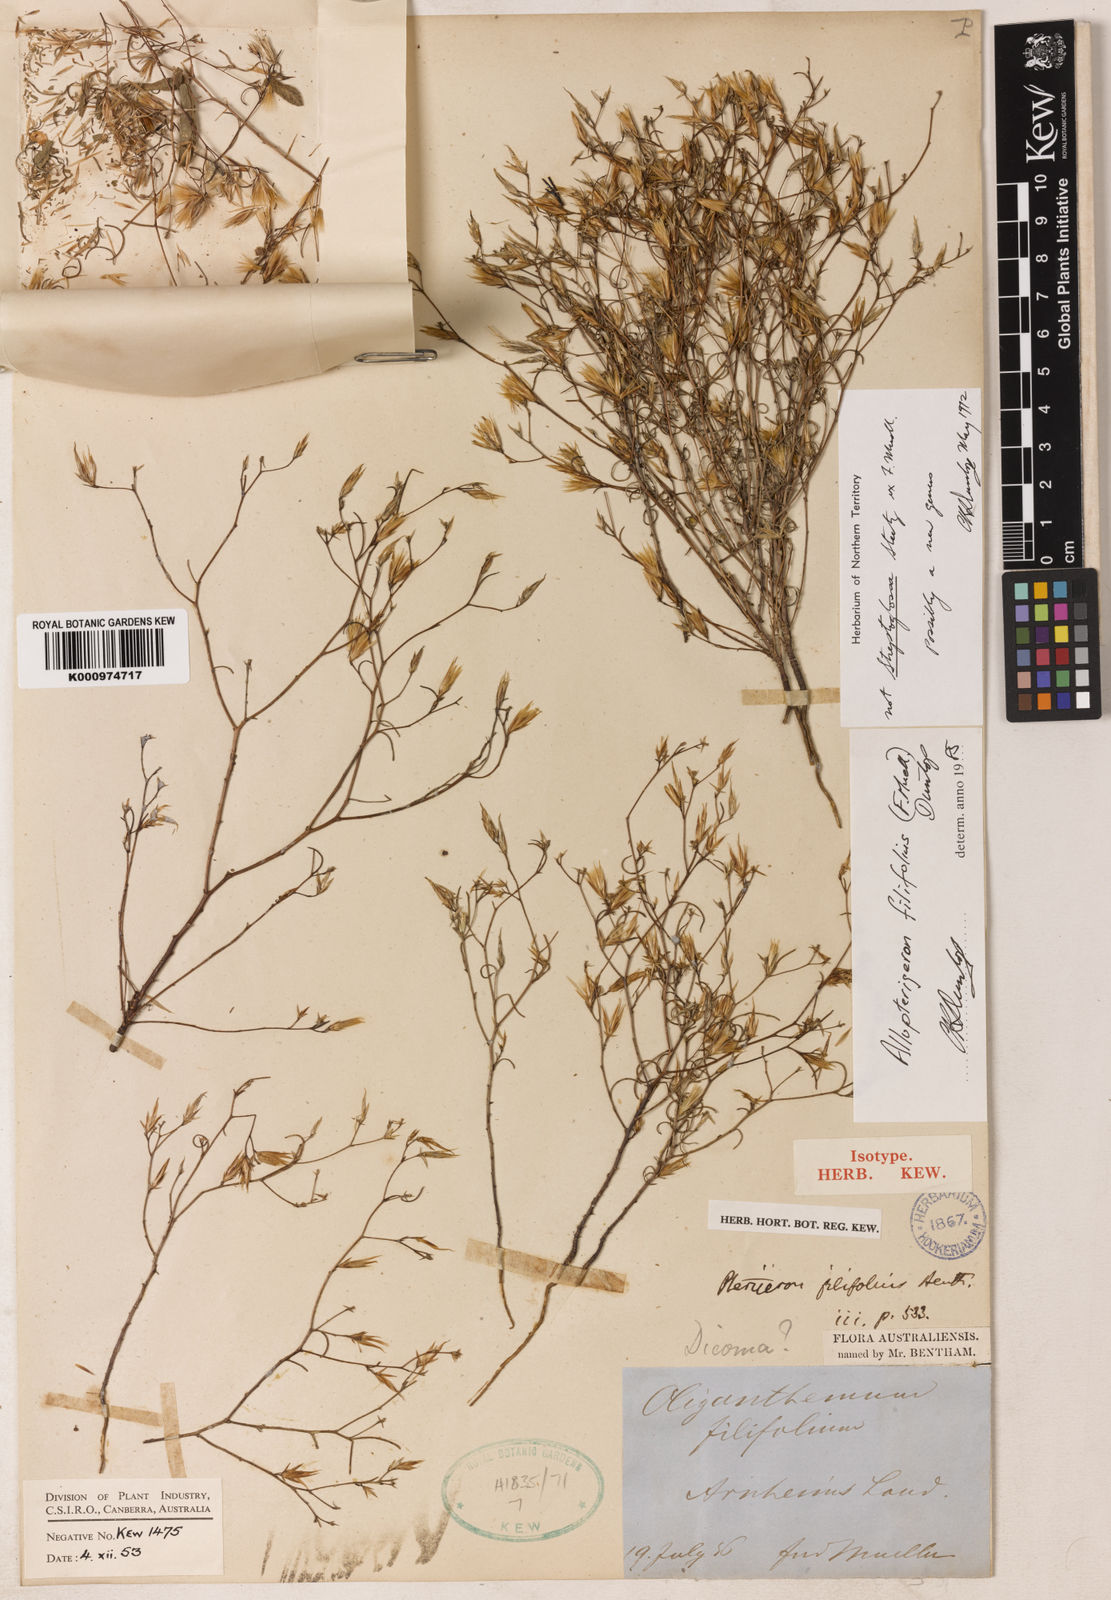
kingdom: Plantae
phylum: Tracheophyta
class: Magnoliopsida
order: Asterales
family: Asteraceae
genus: Allopterigeron
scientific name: Allopterigeron filifolius
